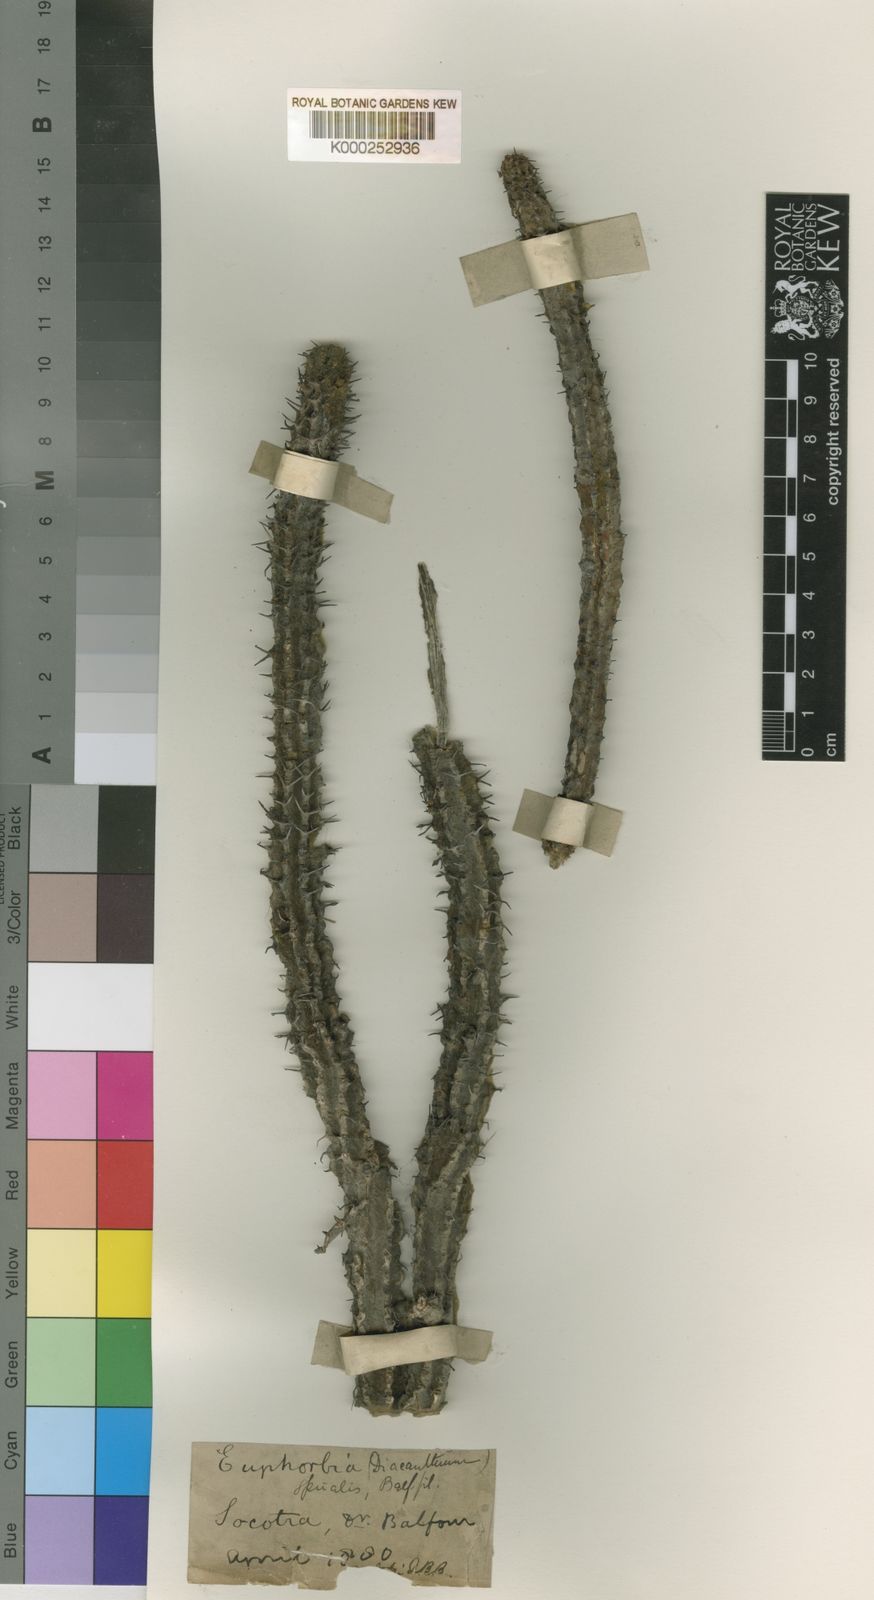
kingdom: Plantae
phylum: Tracheophyta
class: Magnoliopsida
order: Malpighiales
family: Euphorbiaceae
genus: Euphorbia
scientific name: Euphorbia spiralis
